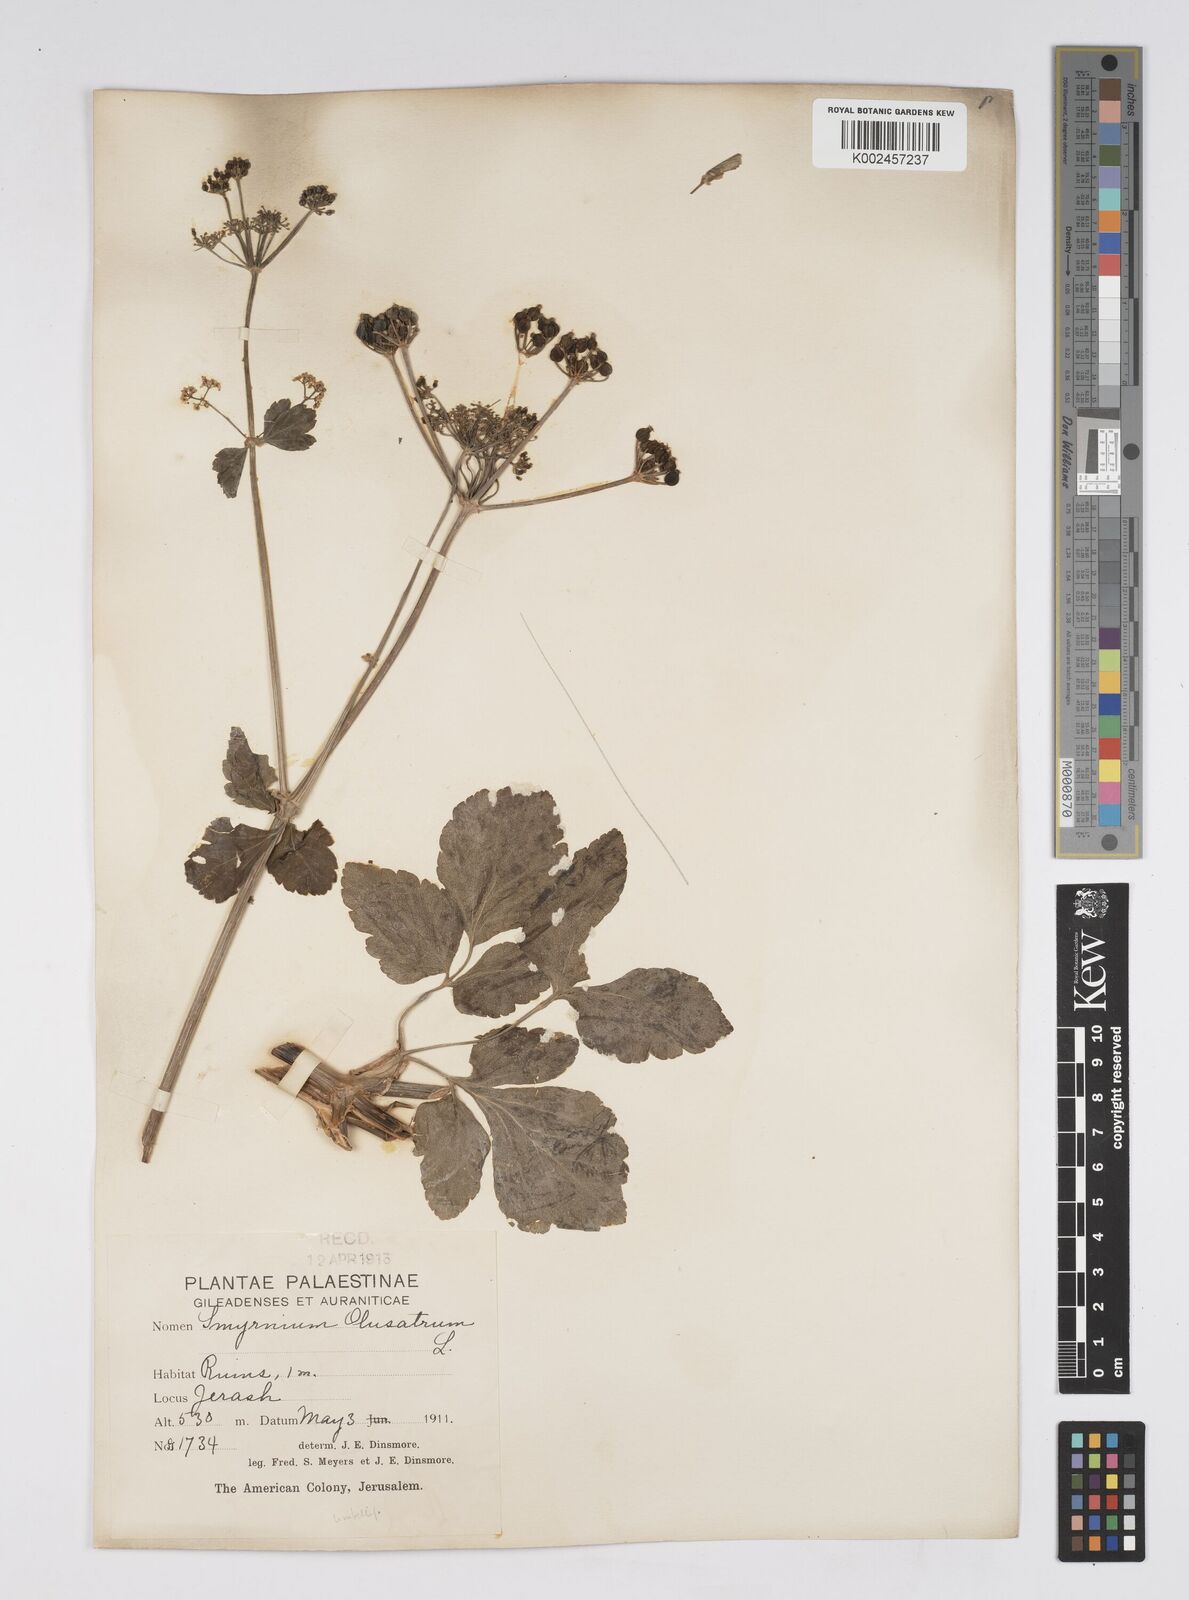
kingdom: Plantae
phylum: Tracheophyta
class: Magnoliopsida
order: Apiales
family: Apiaceae
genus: Smyrnium
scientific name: Smyrnium olusatrum
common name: Alexanders
